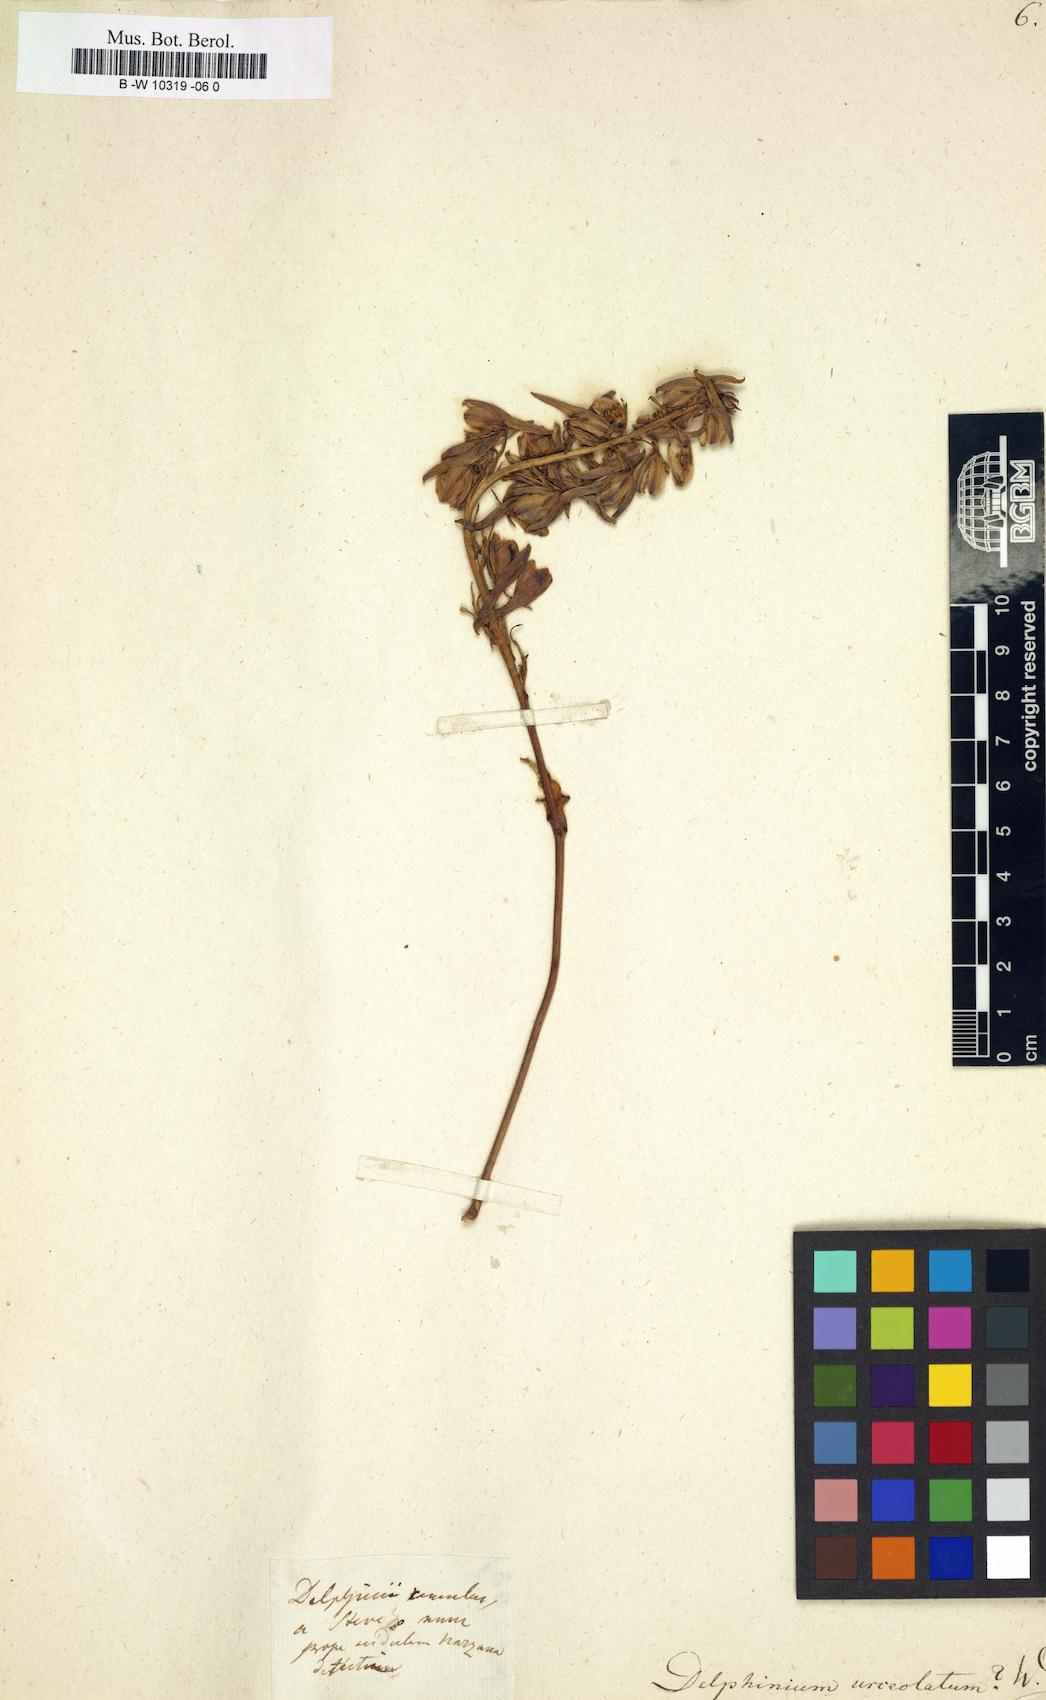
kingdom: Plantae
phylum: Tracheophyta
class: Magnoliopsida
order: Ranunculales
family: Ranunculaceae
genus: Delphinium
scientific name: Delphinium elatum
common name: Candle larkspur
